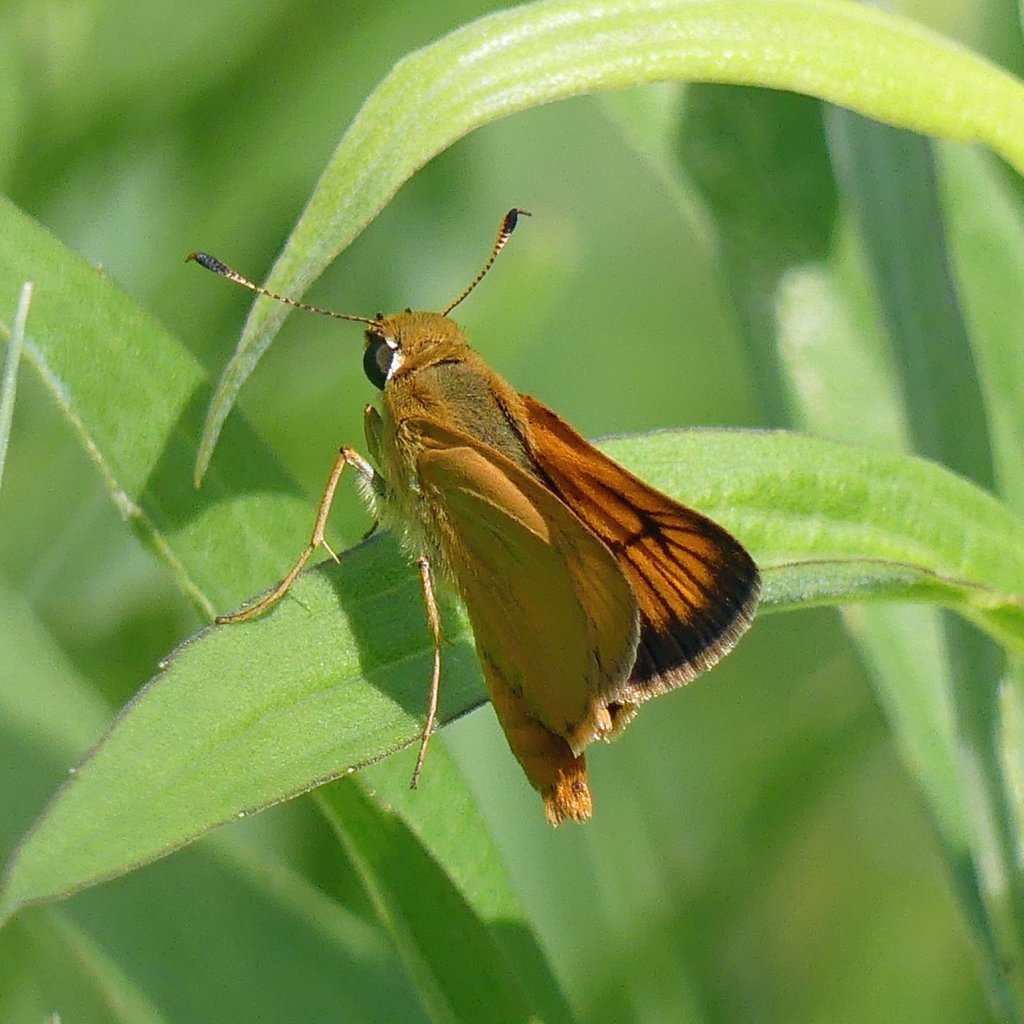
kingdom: Animalia
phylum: Arthropoda
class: Insecta
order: Lepidoptera
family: Hesperiidae
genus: Atrytone
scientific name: Atrytone delaware
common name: Delaware Skipper
